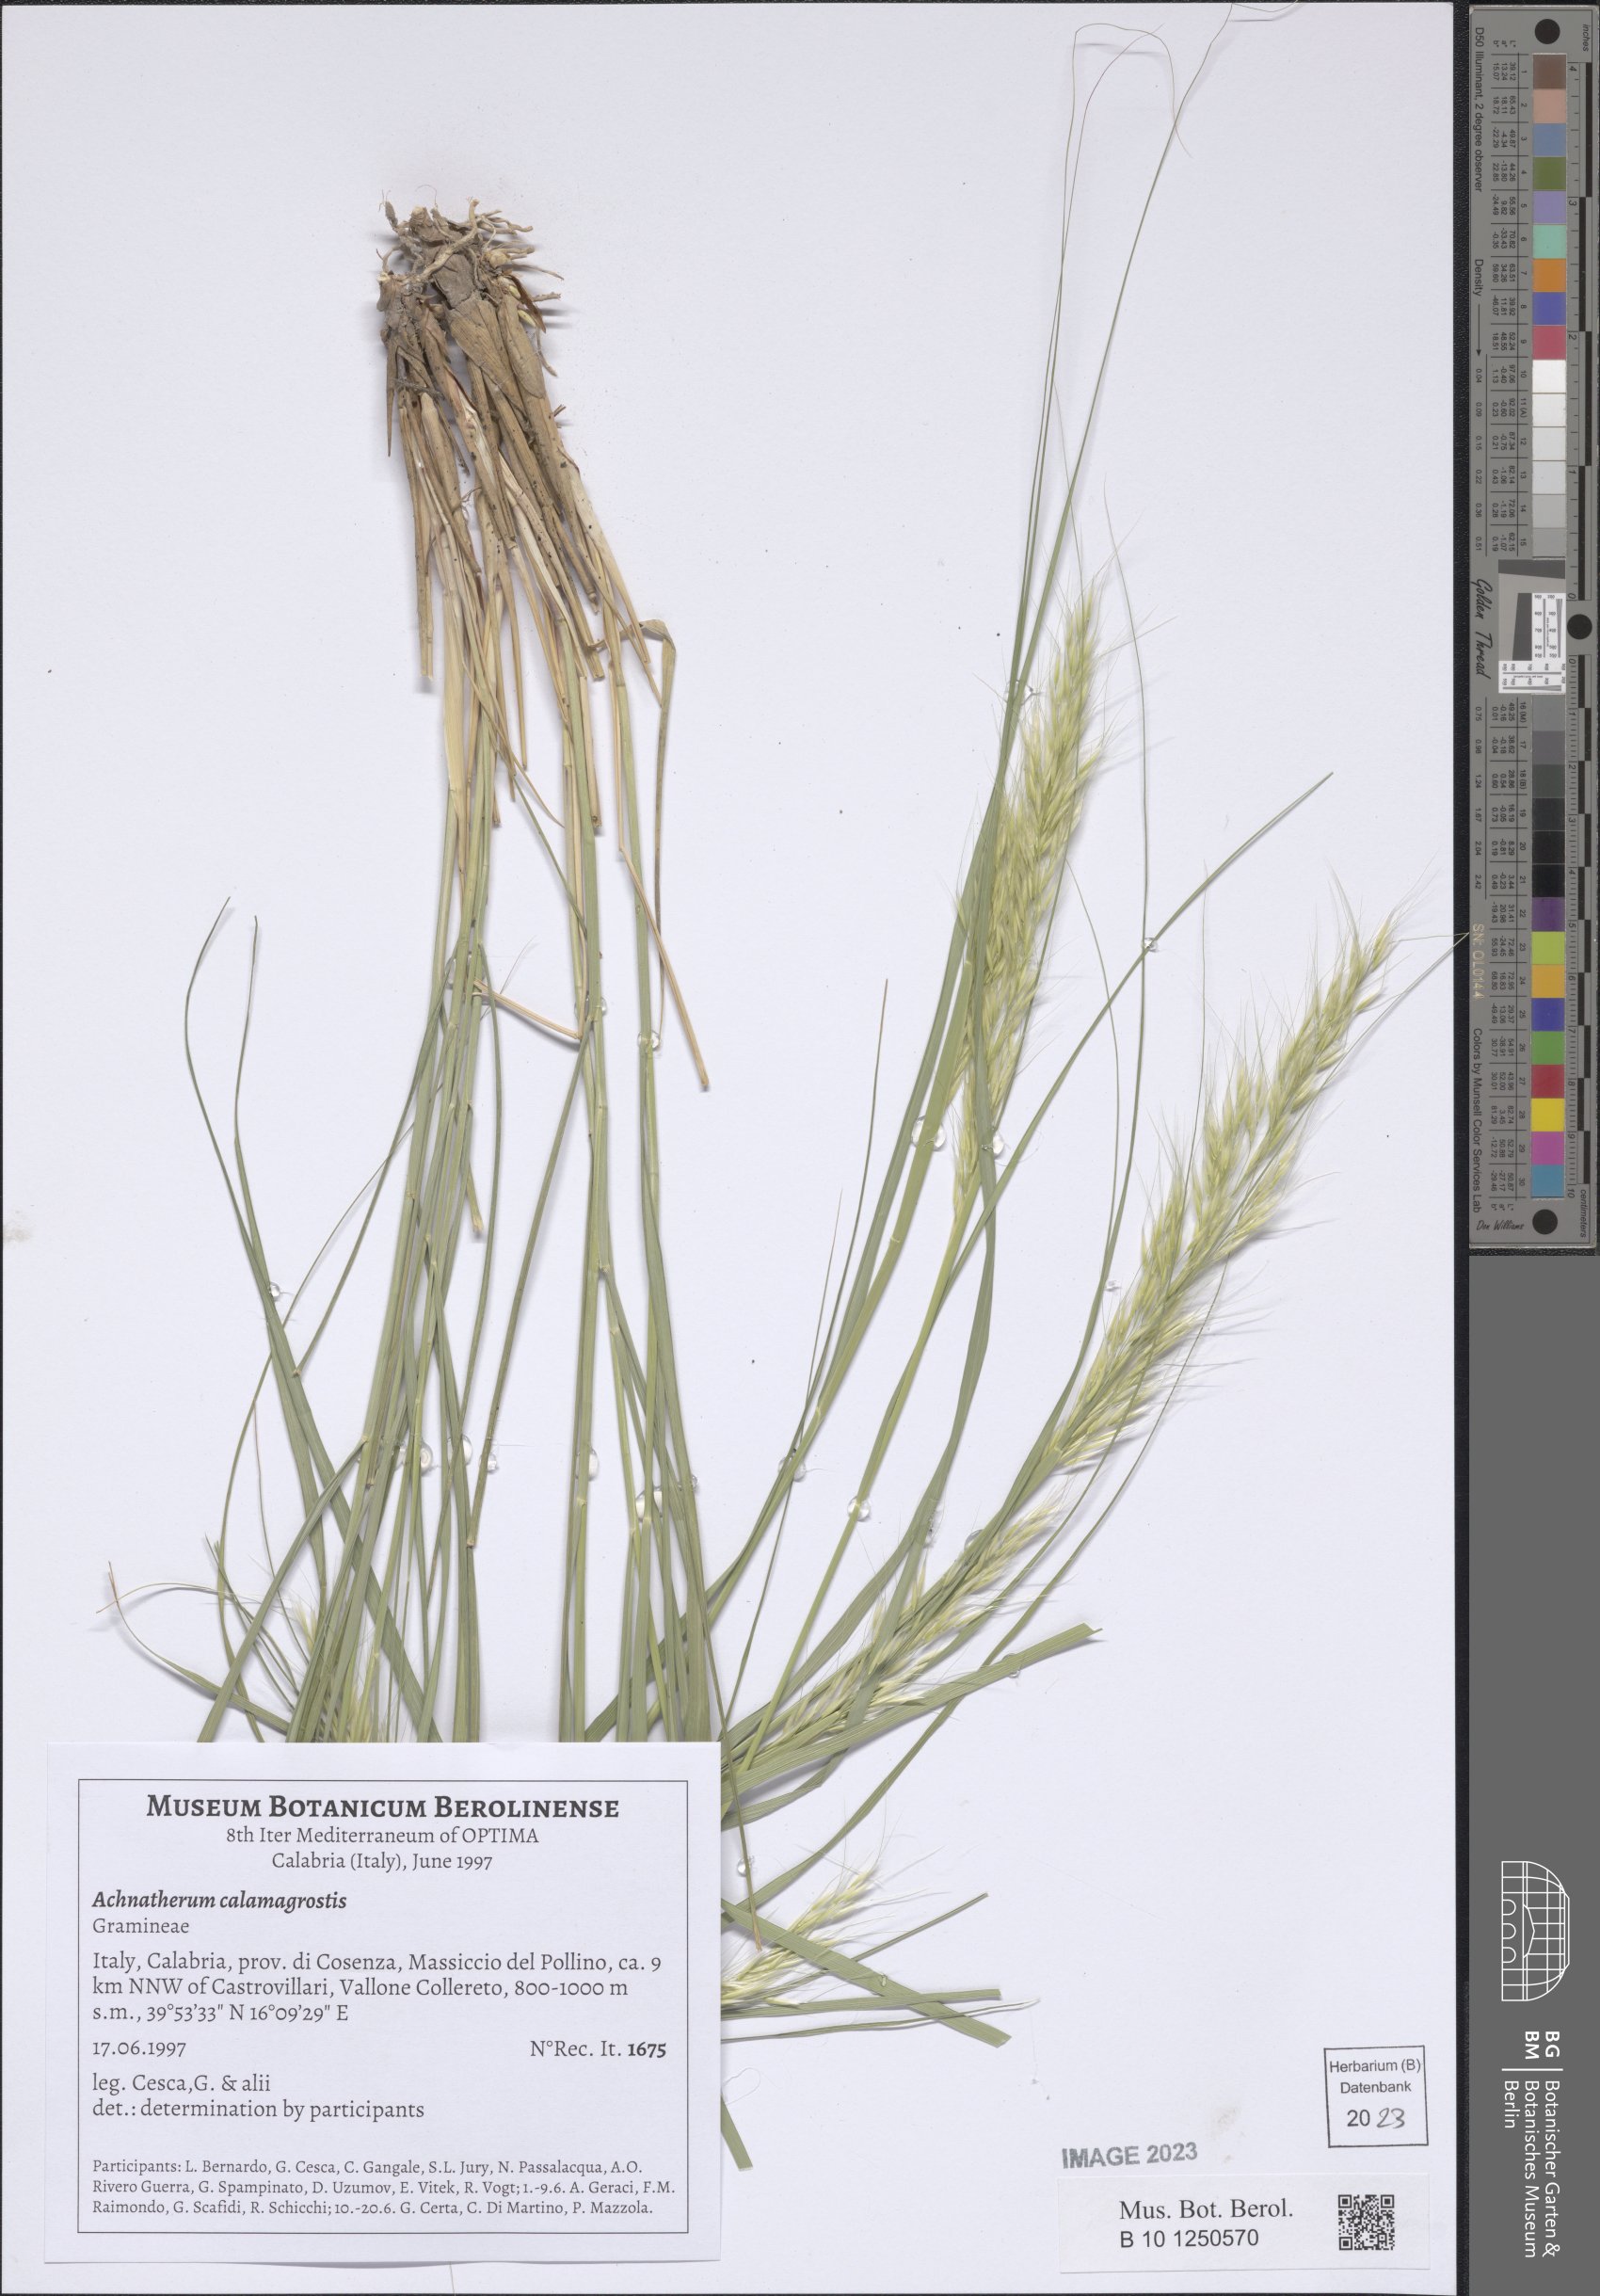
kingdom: Plantae
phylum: Tracheophyta
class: Liliopsida
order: Poales
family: Poaceae
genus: Achnatherum
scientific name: Achnatherum calamagrostis
